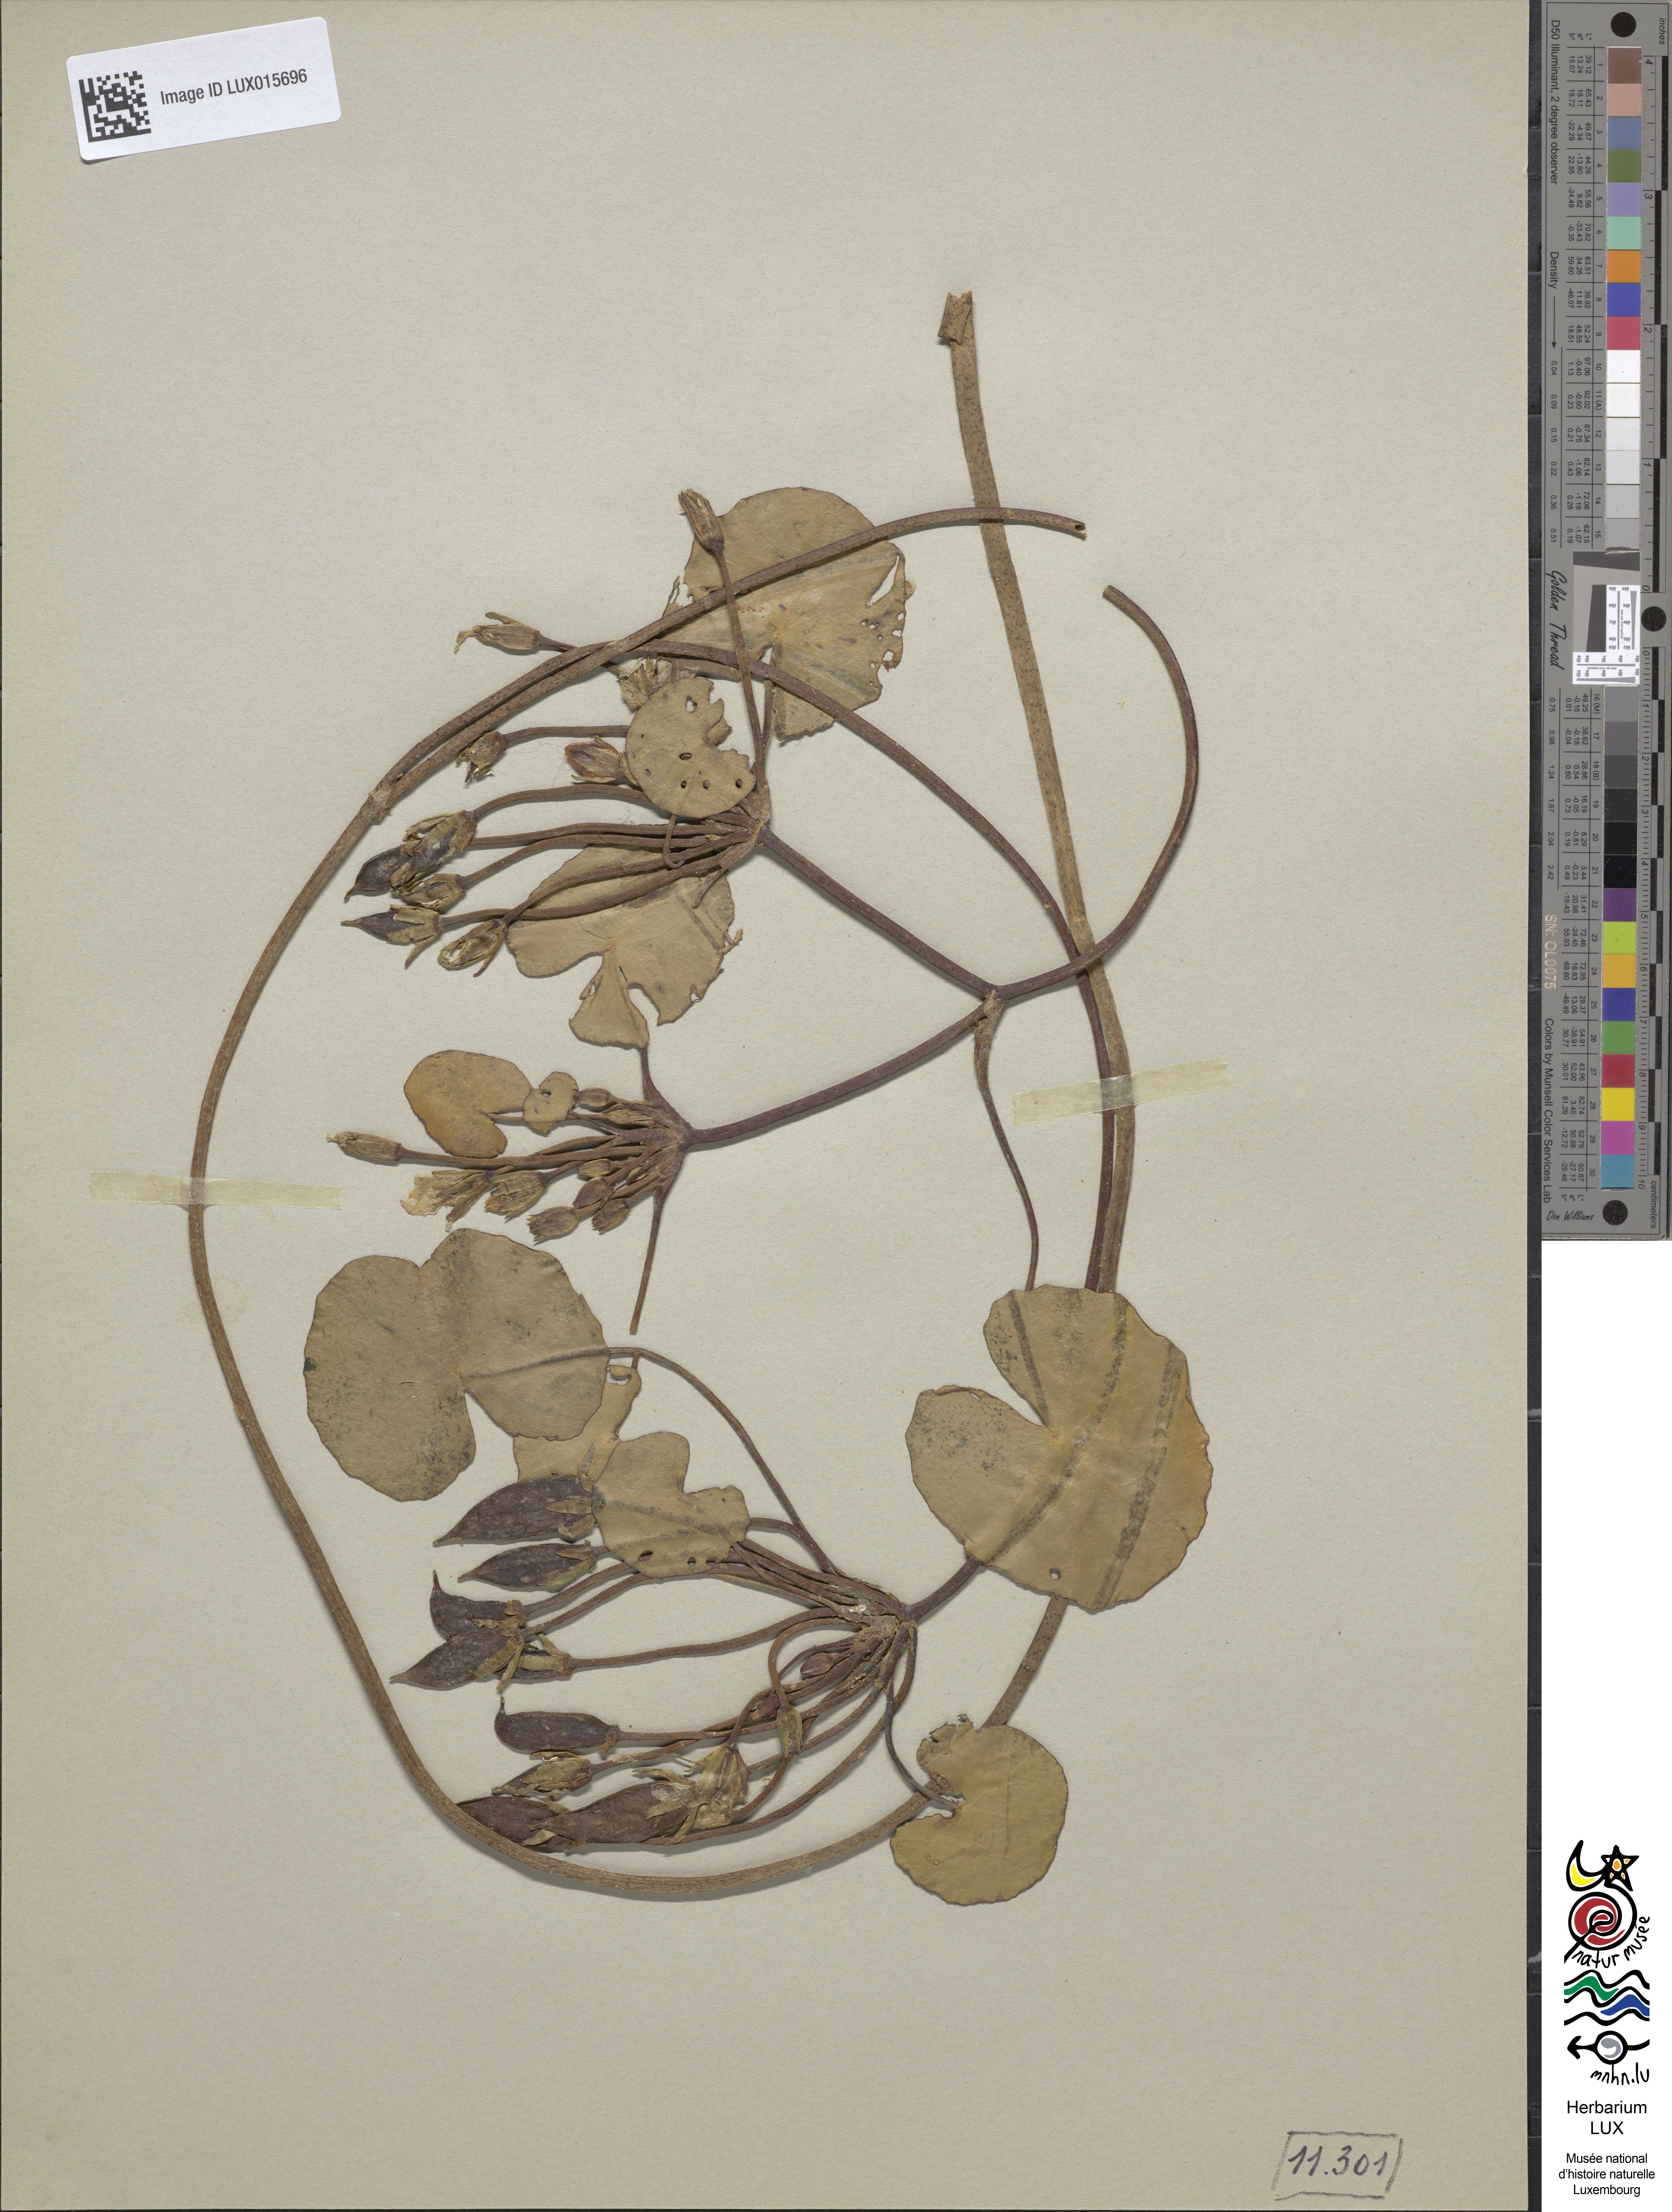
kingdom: Plantae
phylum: Tracheophyta
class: Magnoliopsida
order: Asterales
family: Menyanthaceae
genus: Nymphoides
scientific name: Nymphoides peltata
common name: Fringed water-lily
